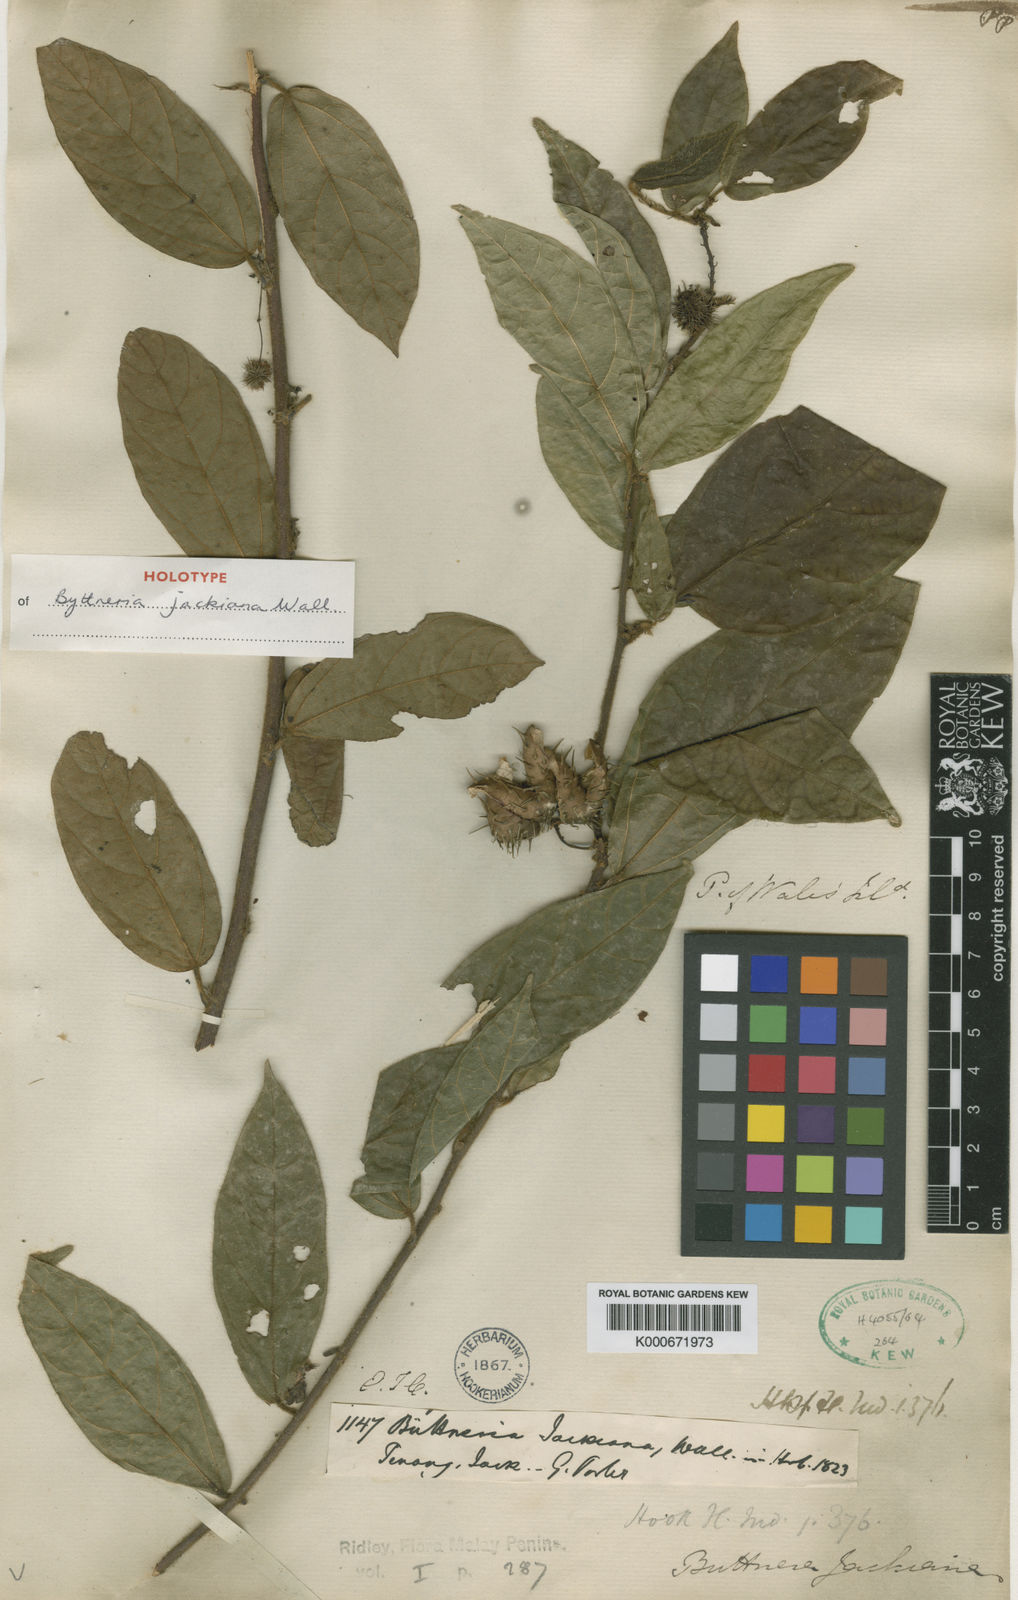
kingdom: Plantae
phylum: Tracheophyta
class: Magnoliopsida
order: Malvales
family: Malvaceae
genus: Byttneria
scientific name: Byttneria jackiana
